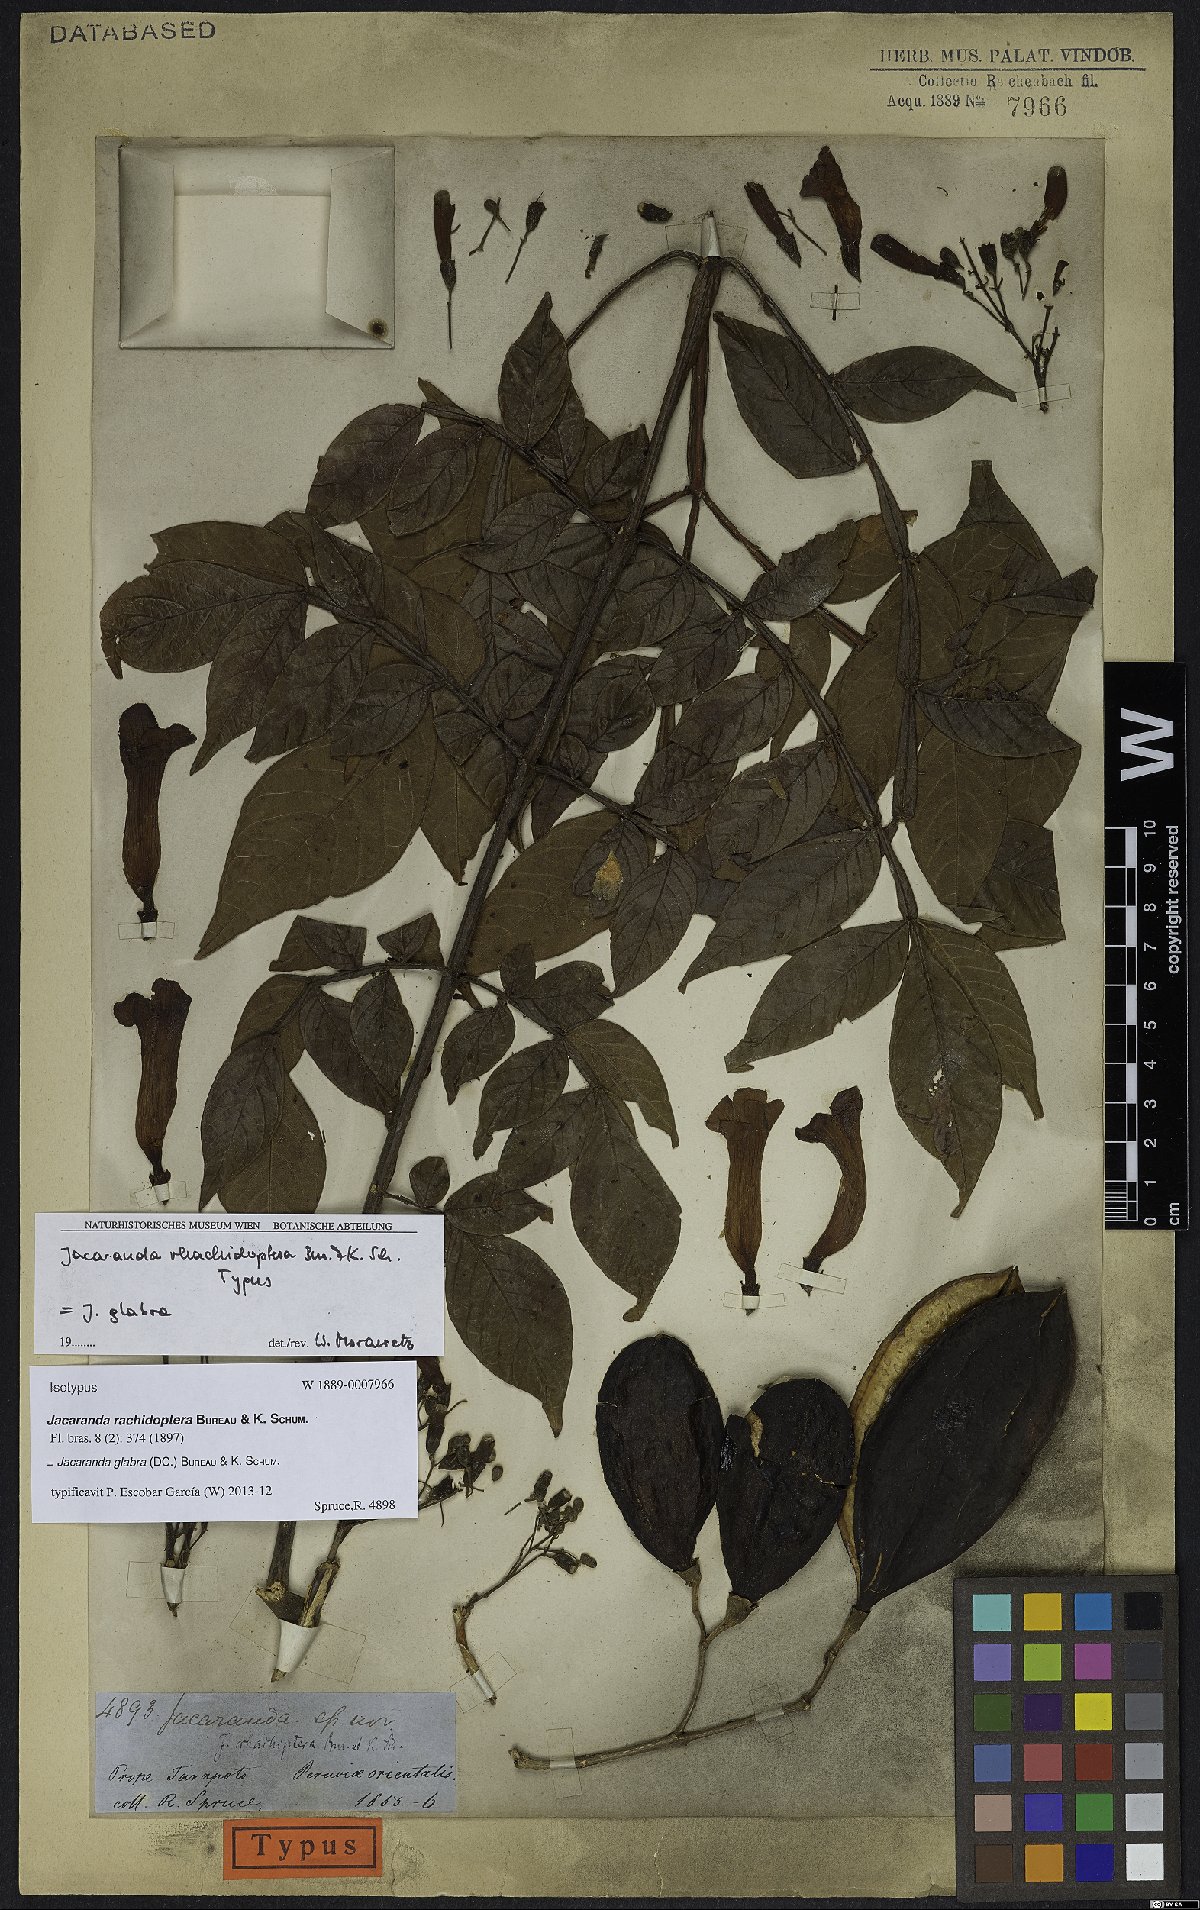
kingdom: Plantae
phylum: Tracheophyta
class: Magnoliopsida
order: Lamiales
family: Bignoniaceae
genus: Jacaranda
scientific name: Jacaranda glabra
